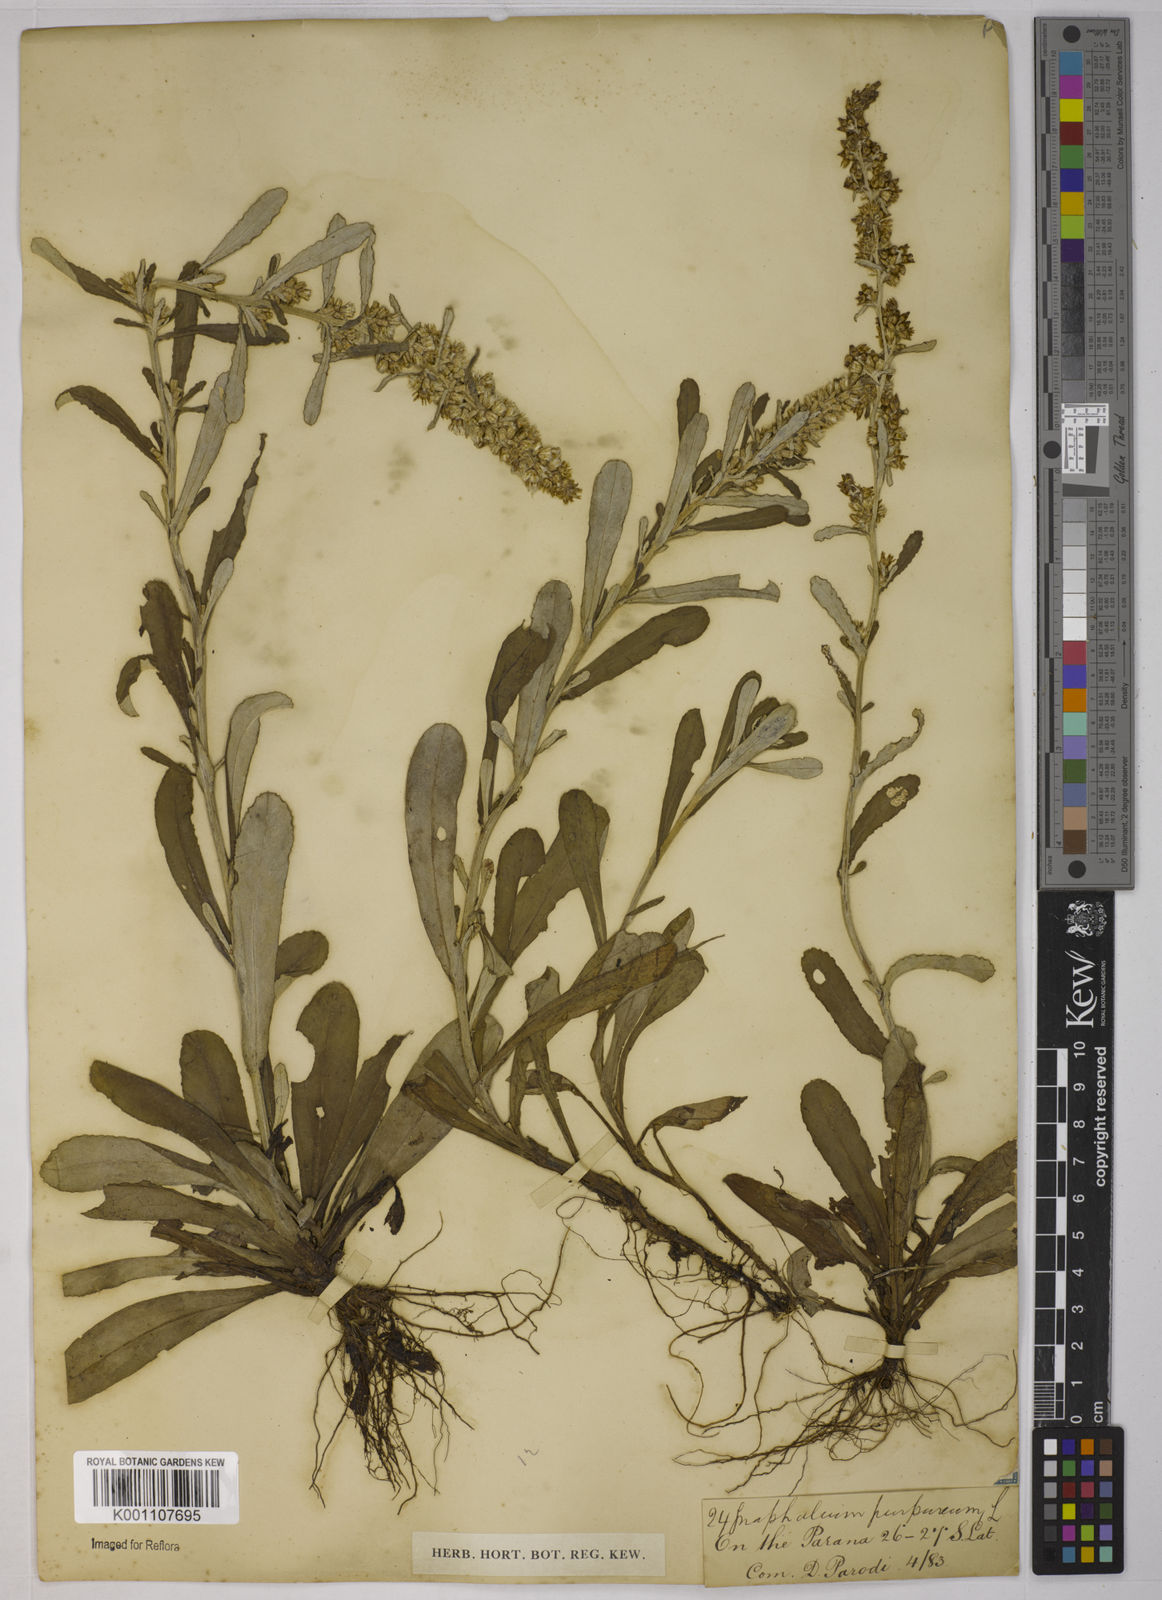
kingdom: Plantae
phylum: Tracheophyta
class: Magnoliopsida
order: Asterales
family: Asteraceae
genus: Gamochaeta
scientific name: Gamochaeta purpurea
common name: Purple cudweed
